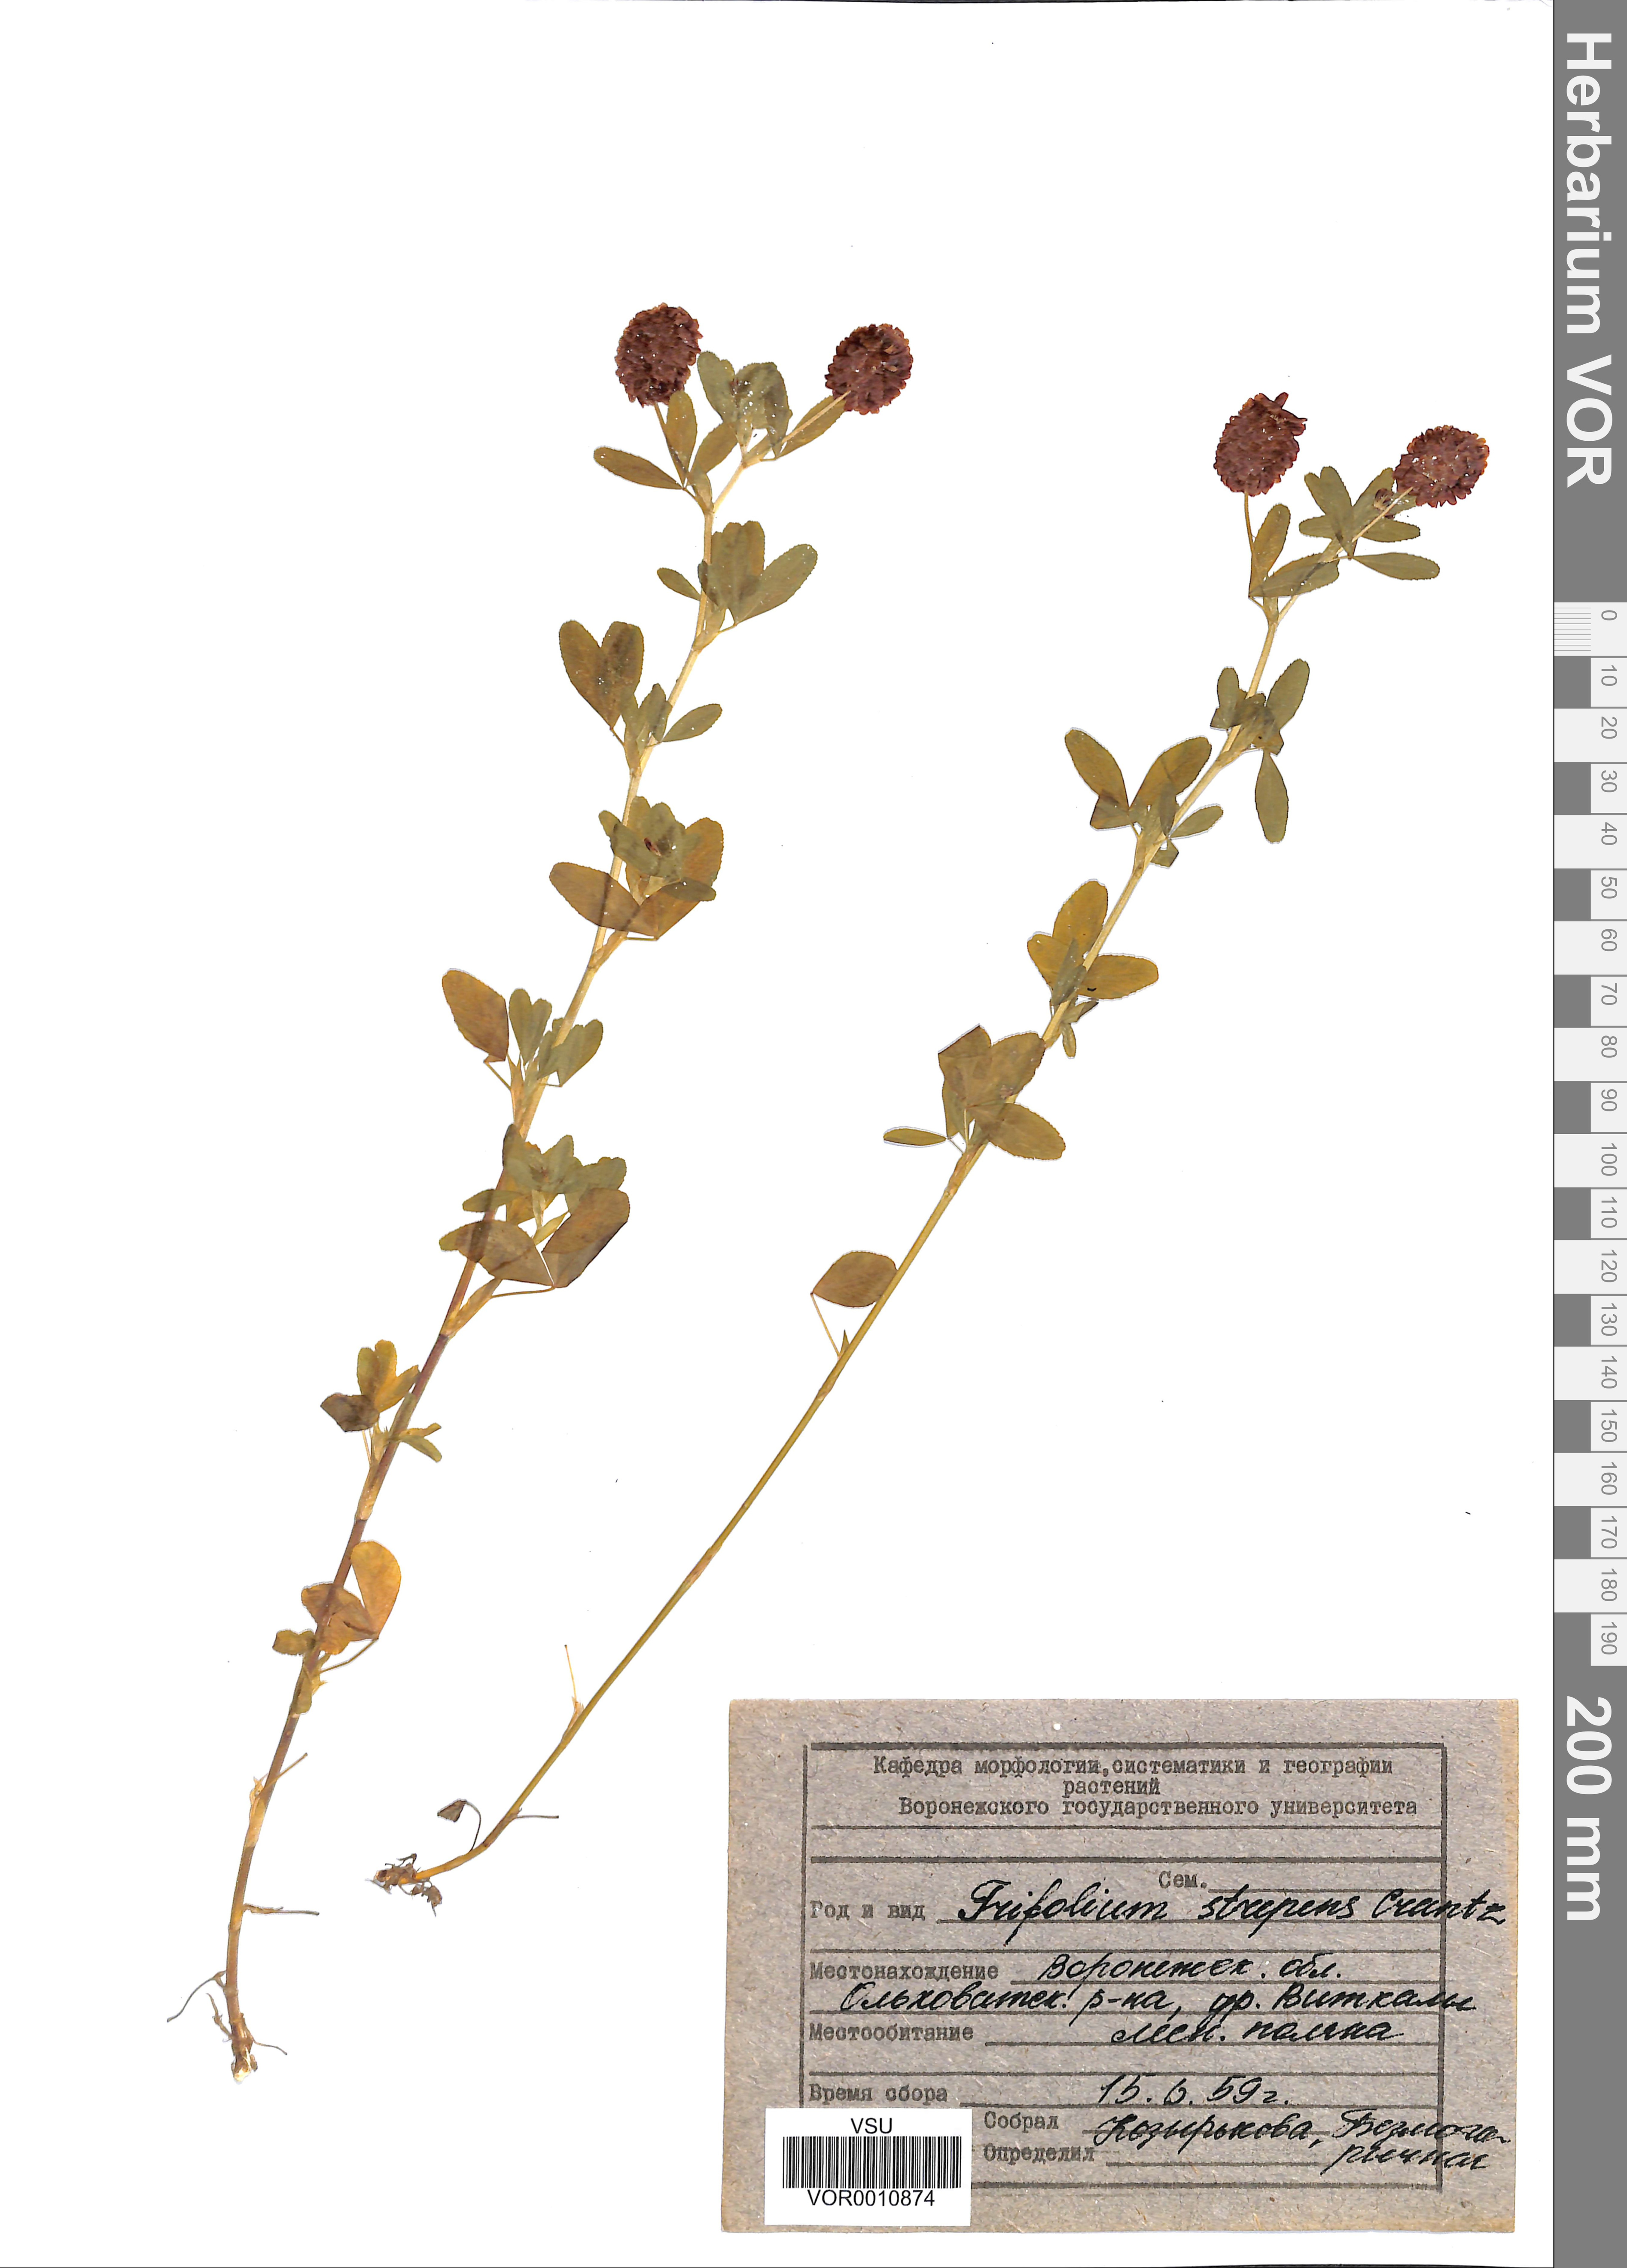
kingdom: Plantae
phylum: Tracheophyta
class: Magnoliopsida
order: Fabales
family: Fabaceae
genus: Trifolium
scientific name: Trifolium aureum
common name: Golden clover
